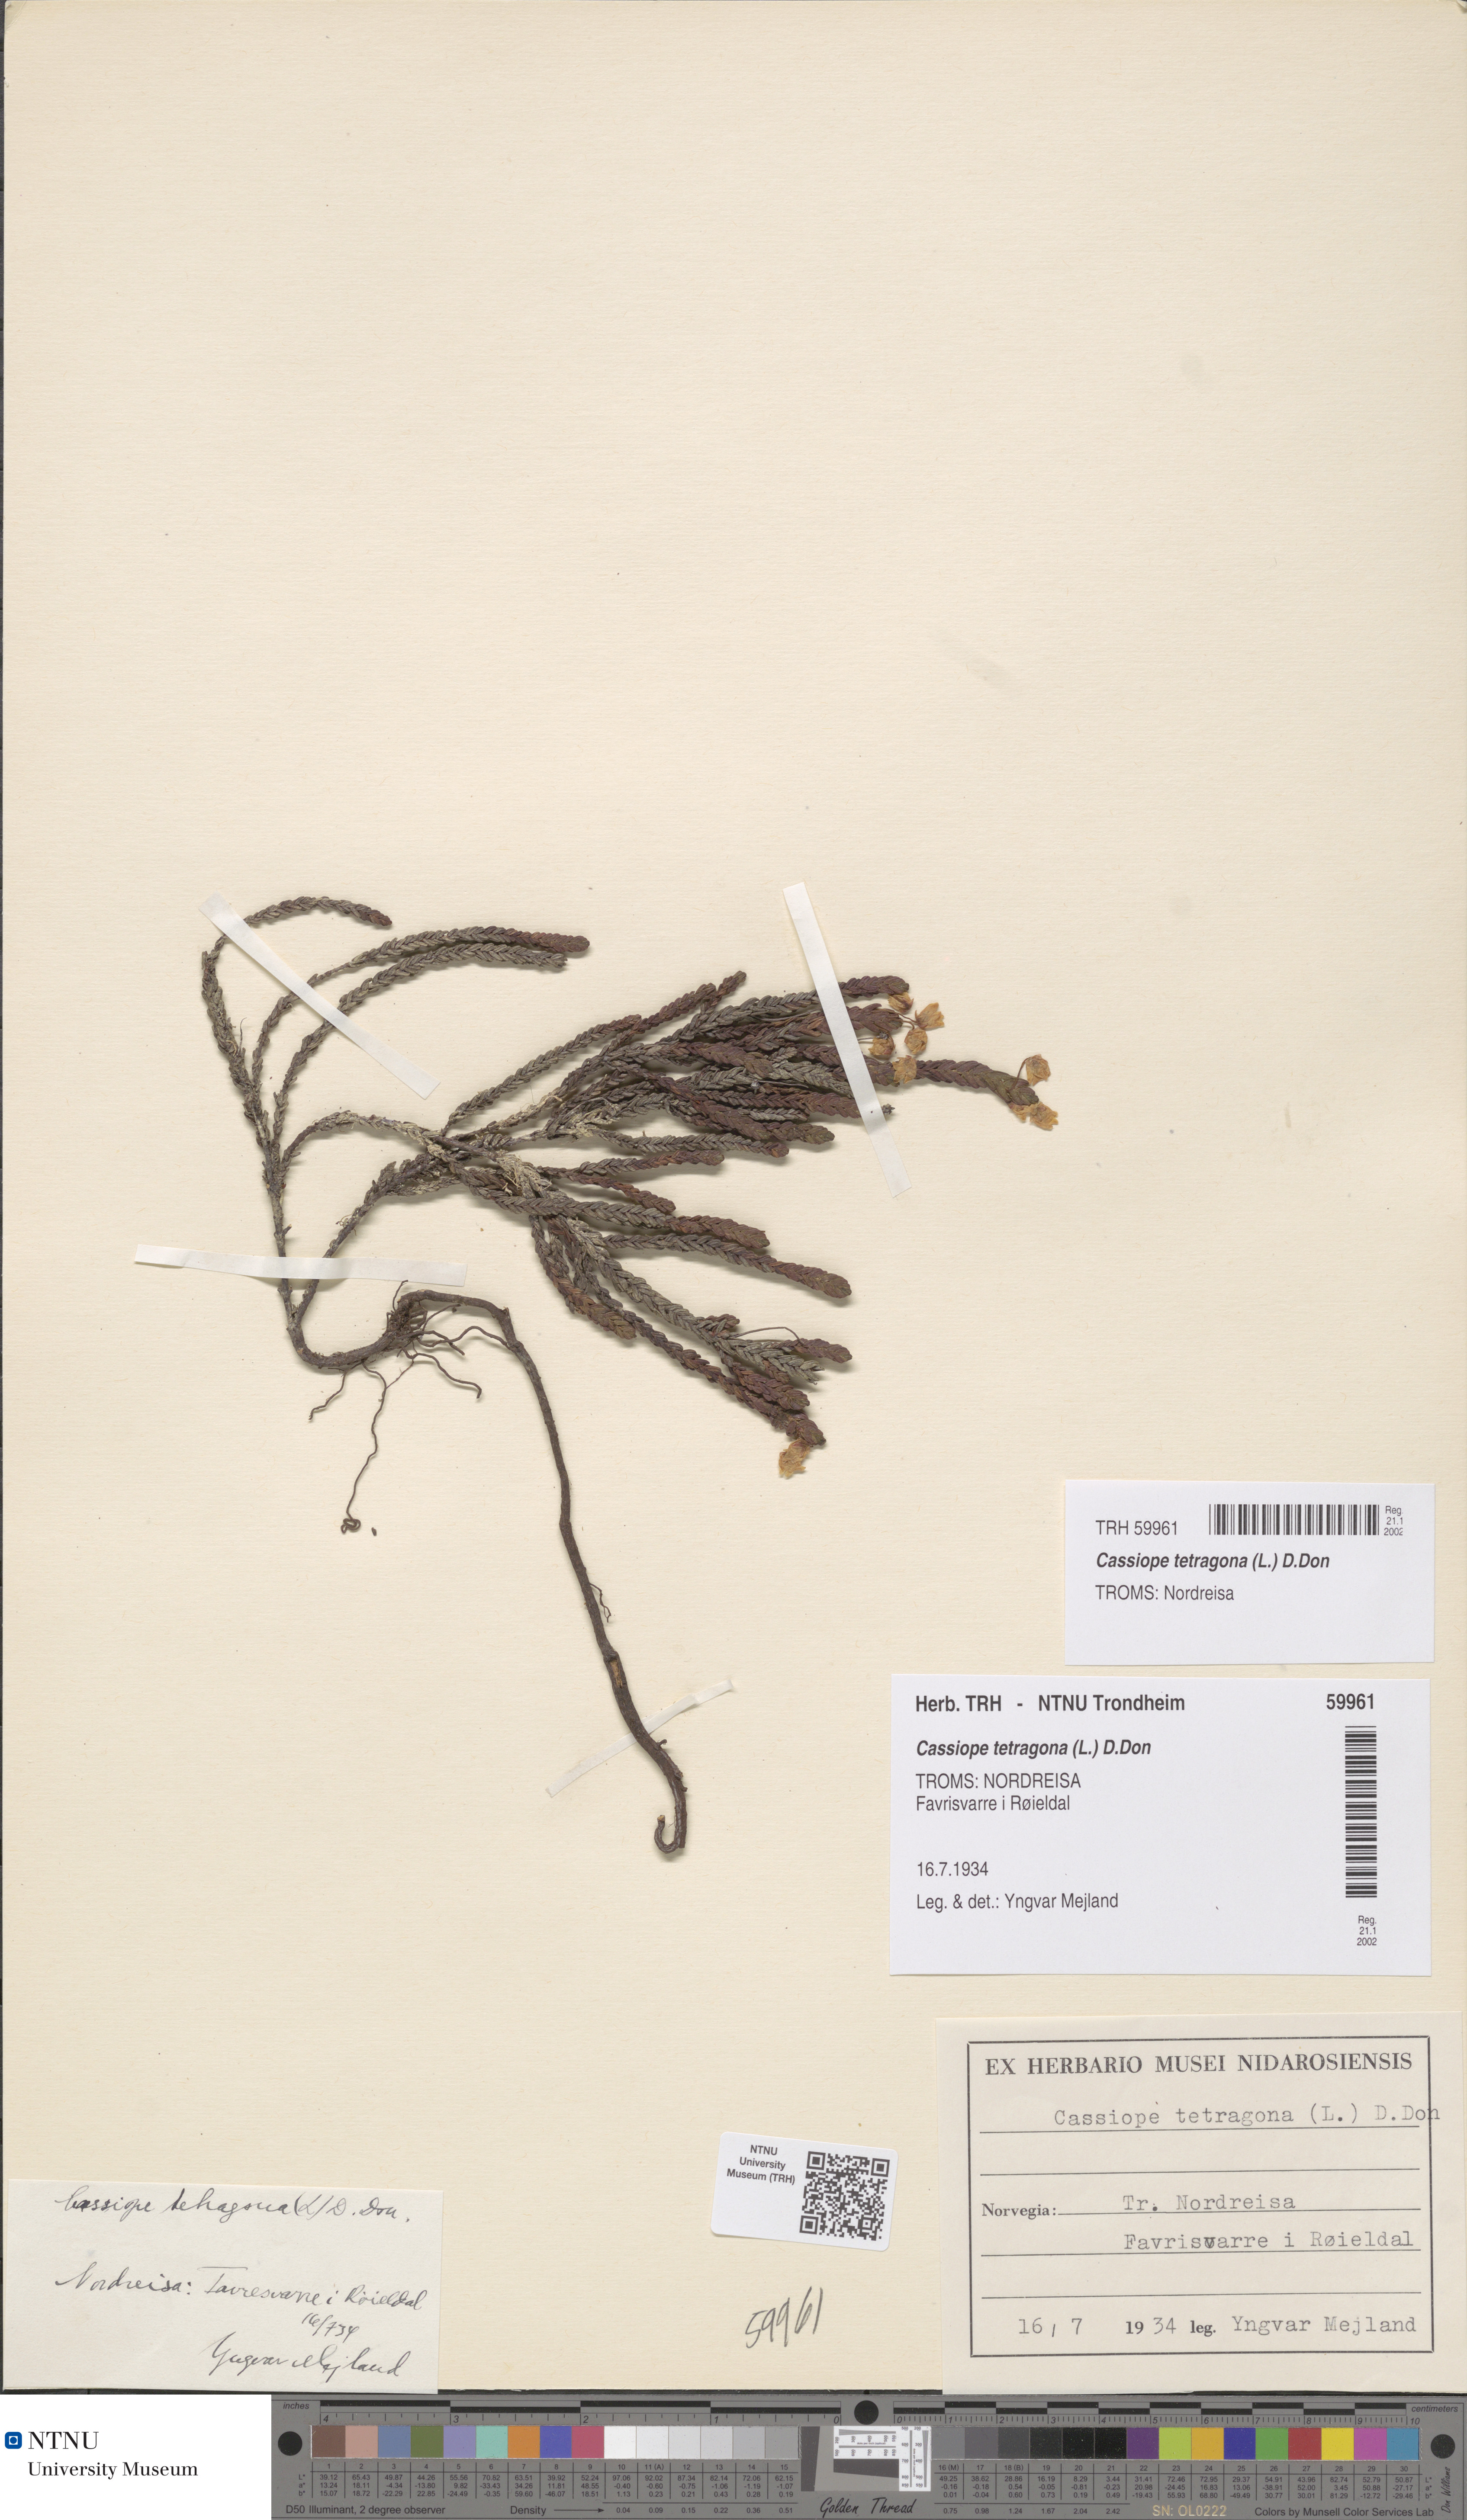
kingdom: Plantae
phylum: Tracheophyta
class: Magnoliopsida
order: Ericales
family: Ericaceae
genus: Cassiope
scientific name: Cassiope tetragona
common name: Arctic bell heather
